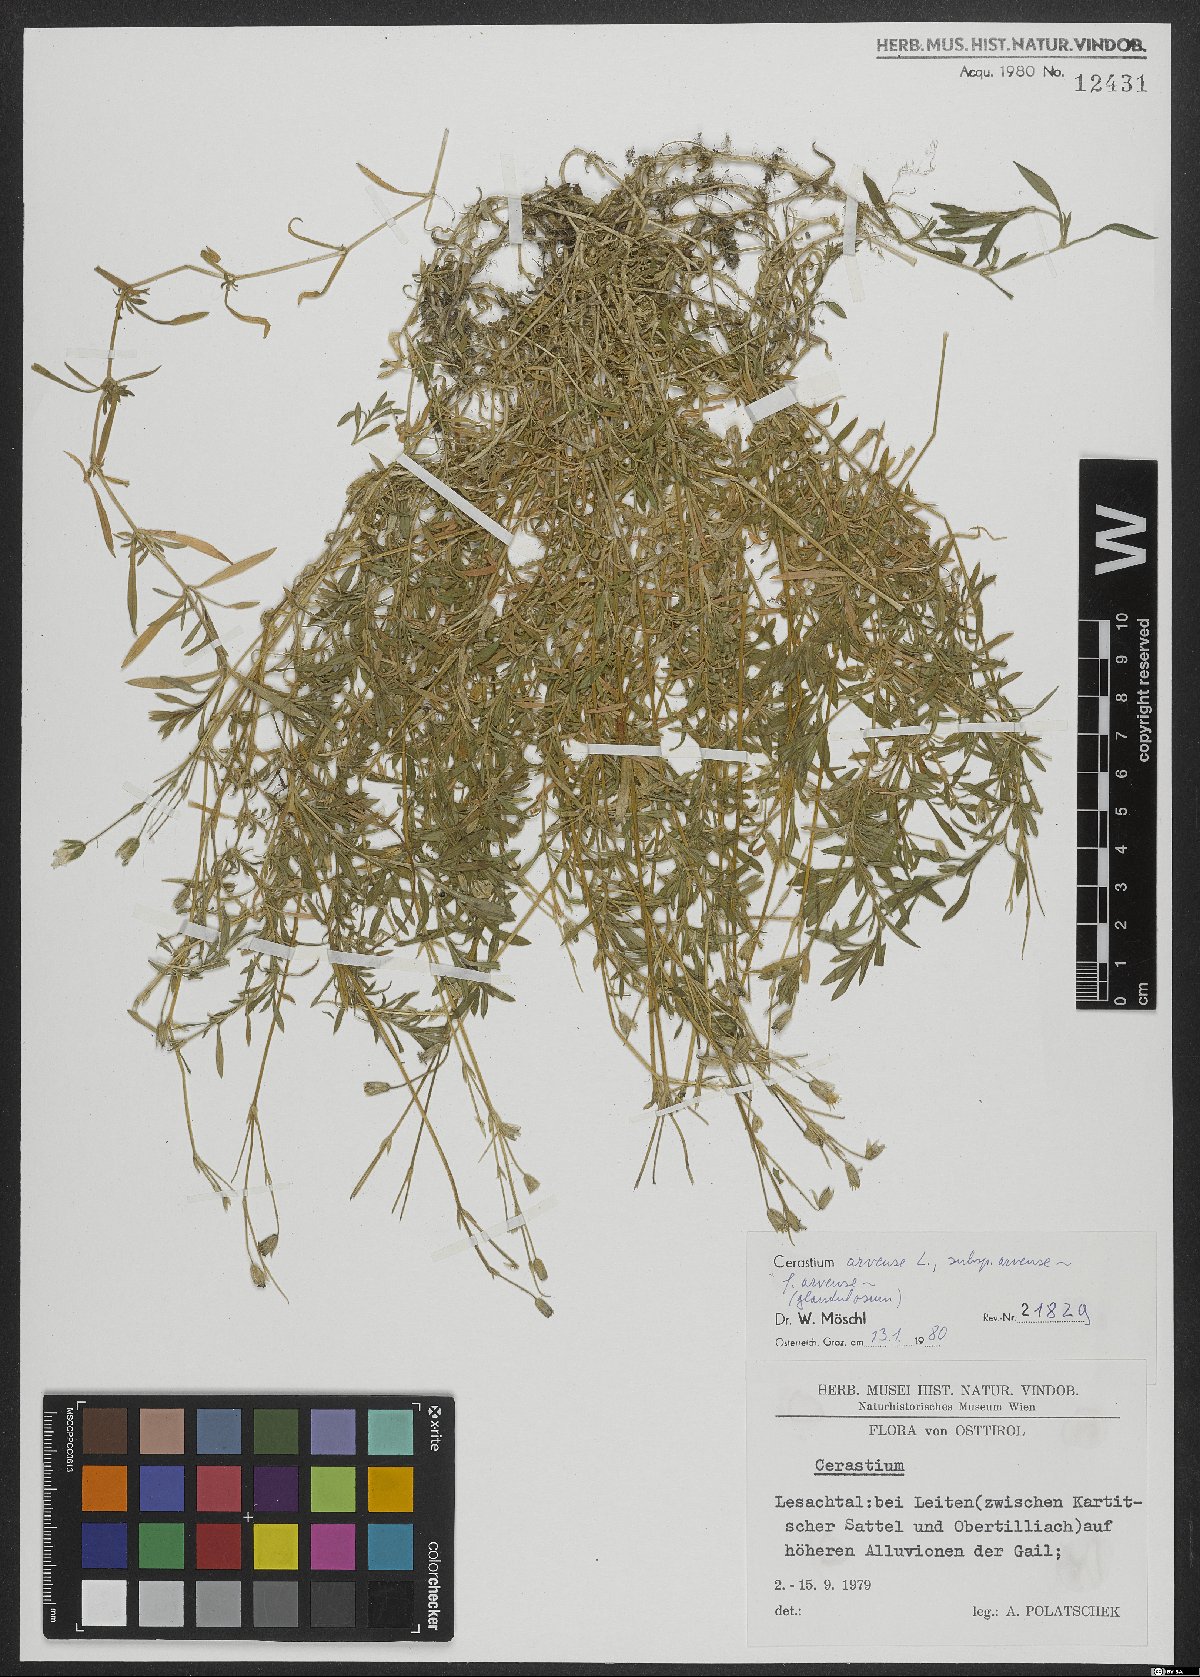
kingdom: Plantae
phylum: Tracheophyta
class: Magnoliopsida
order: Caryophyllales
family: Caryophyllaceae
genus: Cerastium
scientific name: Cerastium arvense
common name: Field mouse-ear
